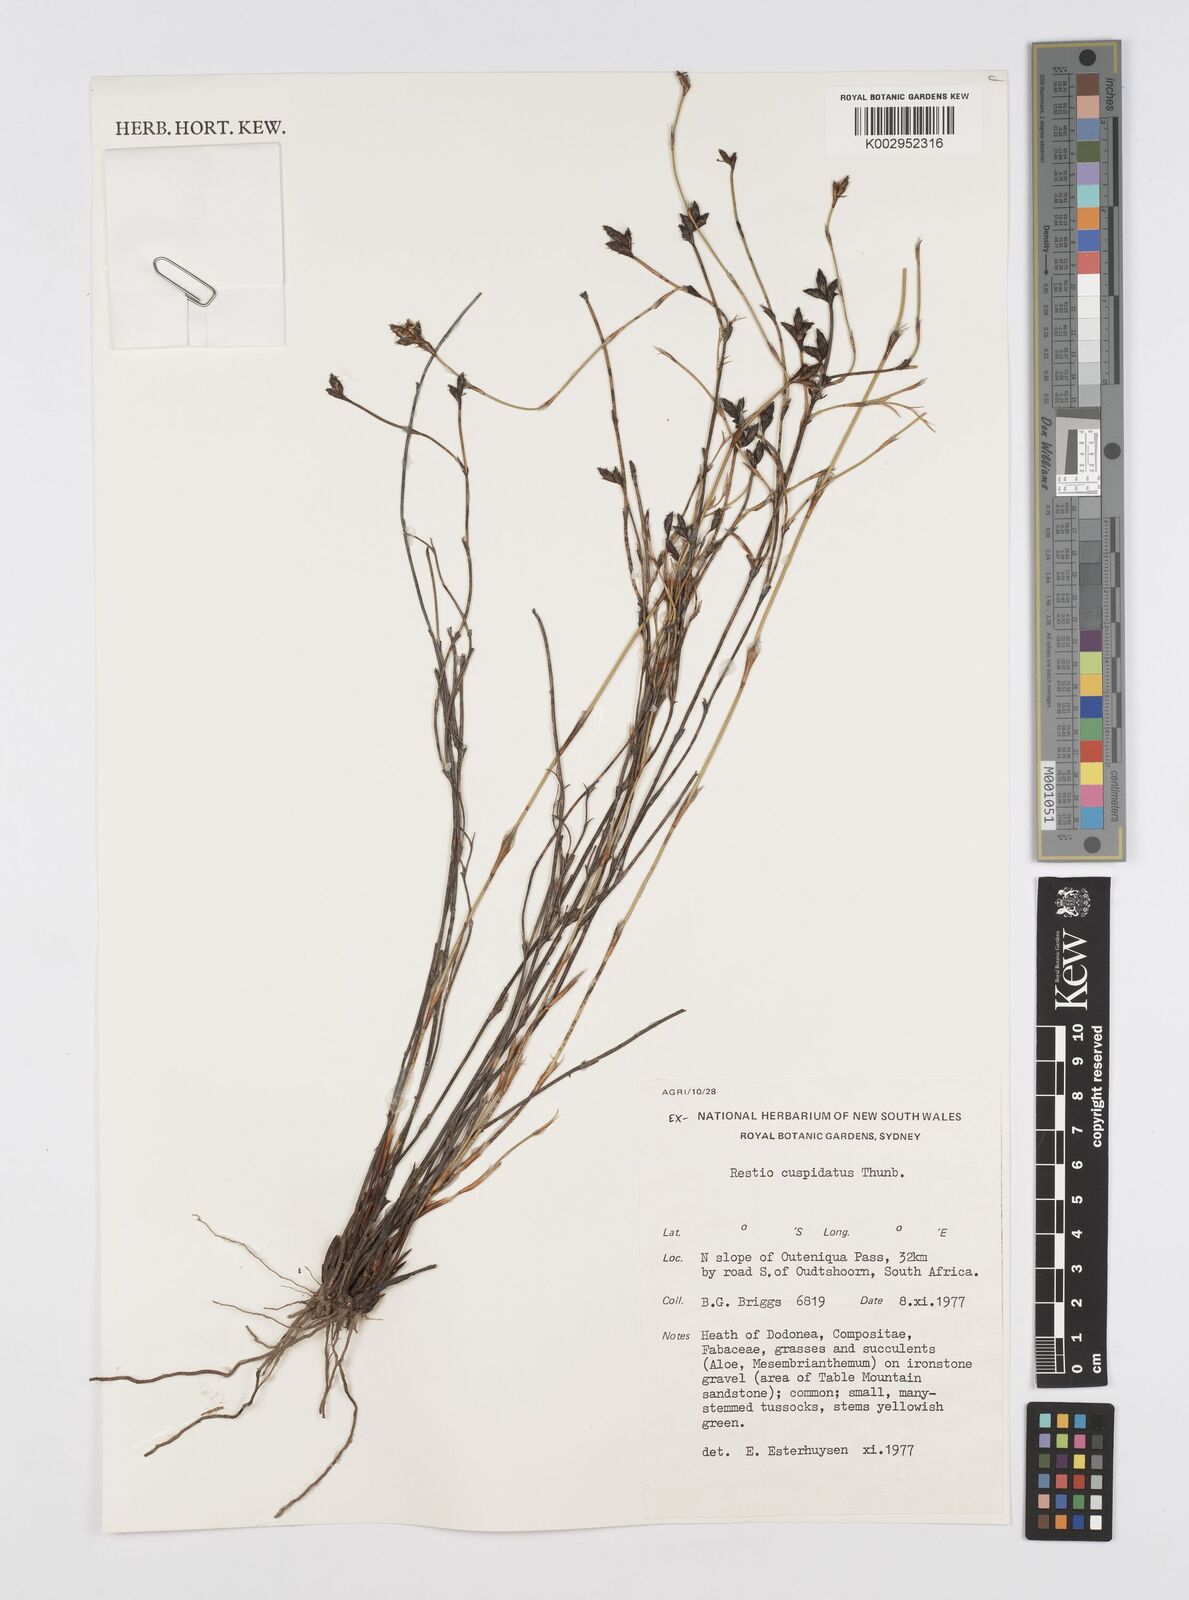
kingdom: Plantae
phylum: Tracheophyta
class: Liliopsida
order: Poales
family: Restionaceae
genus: Restio
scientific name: Restio capensis
